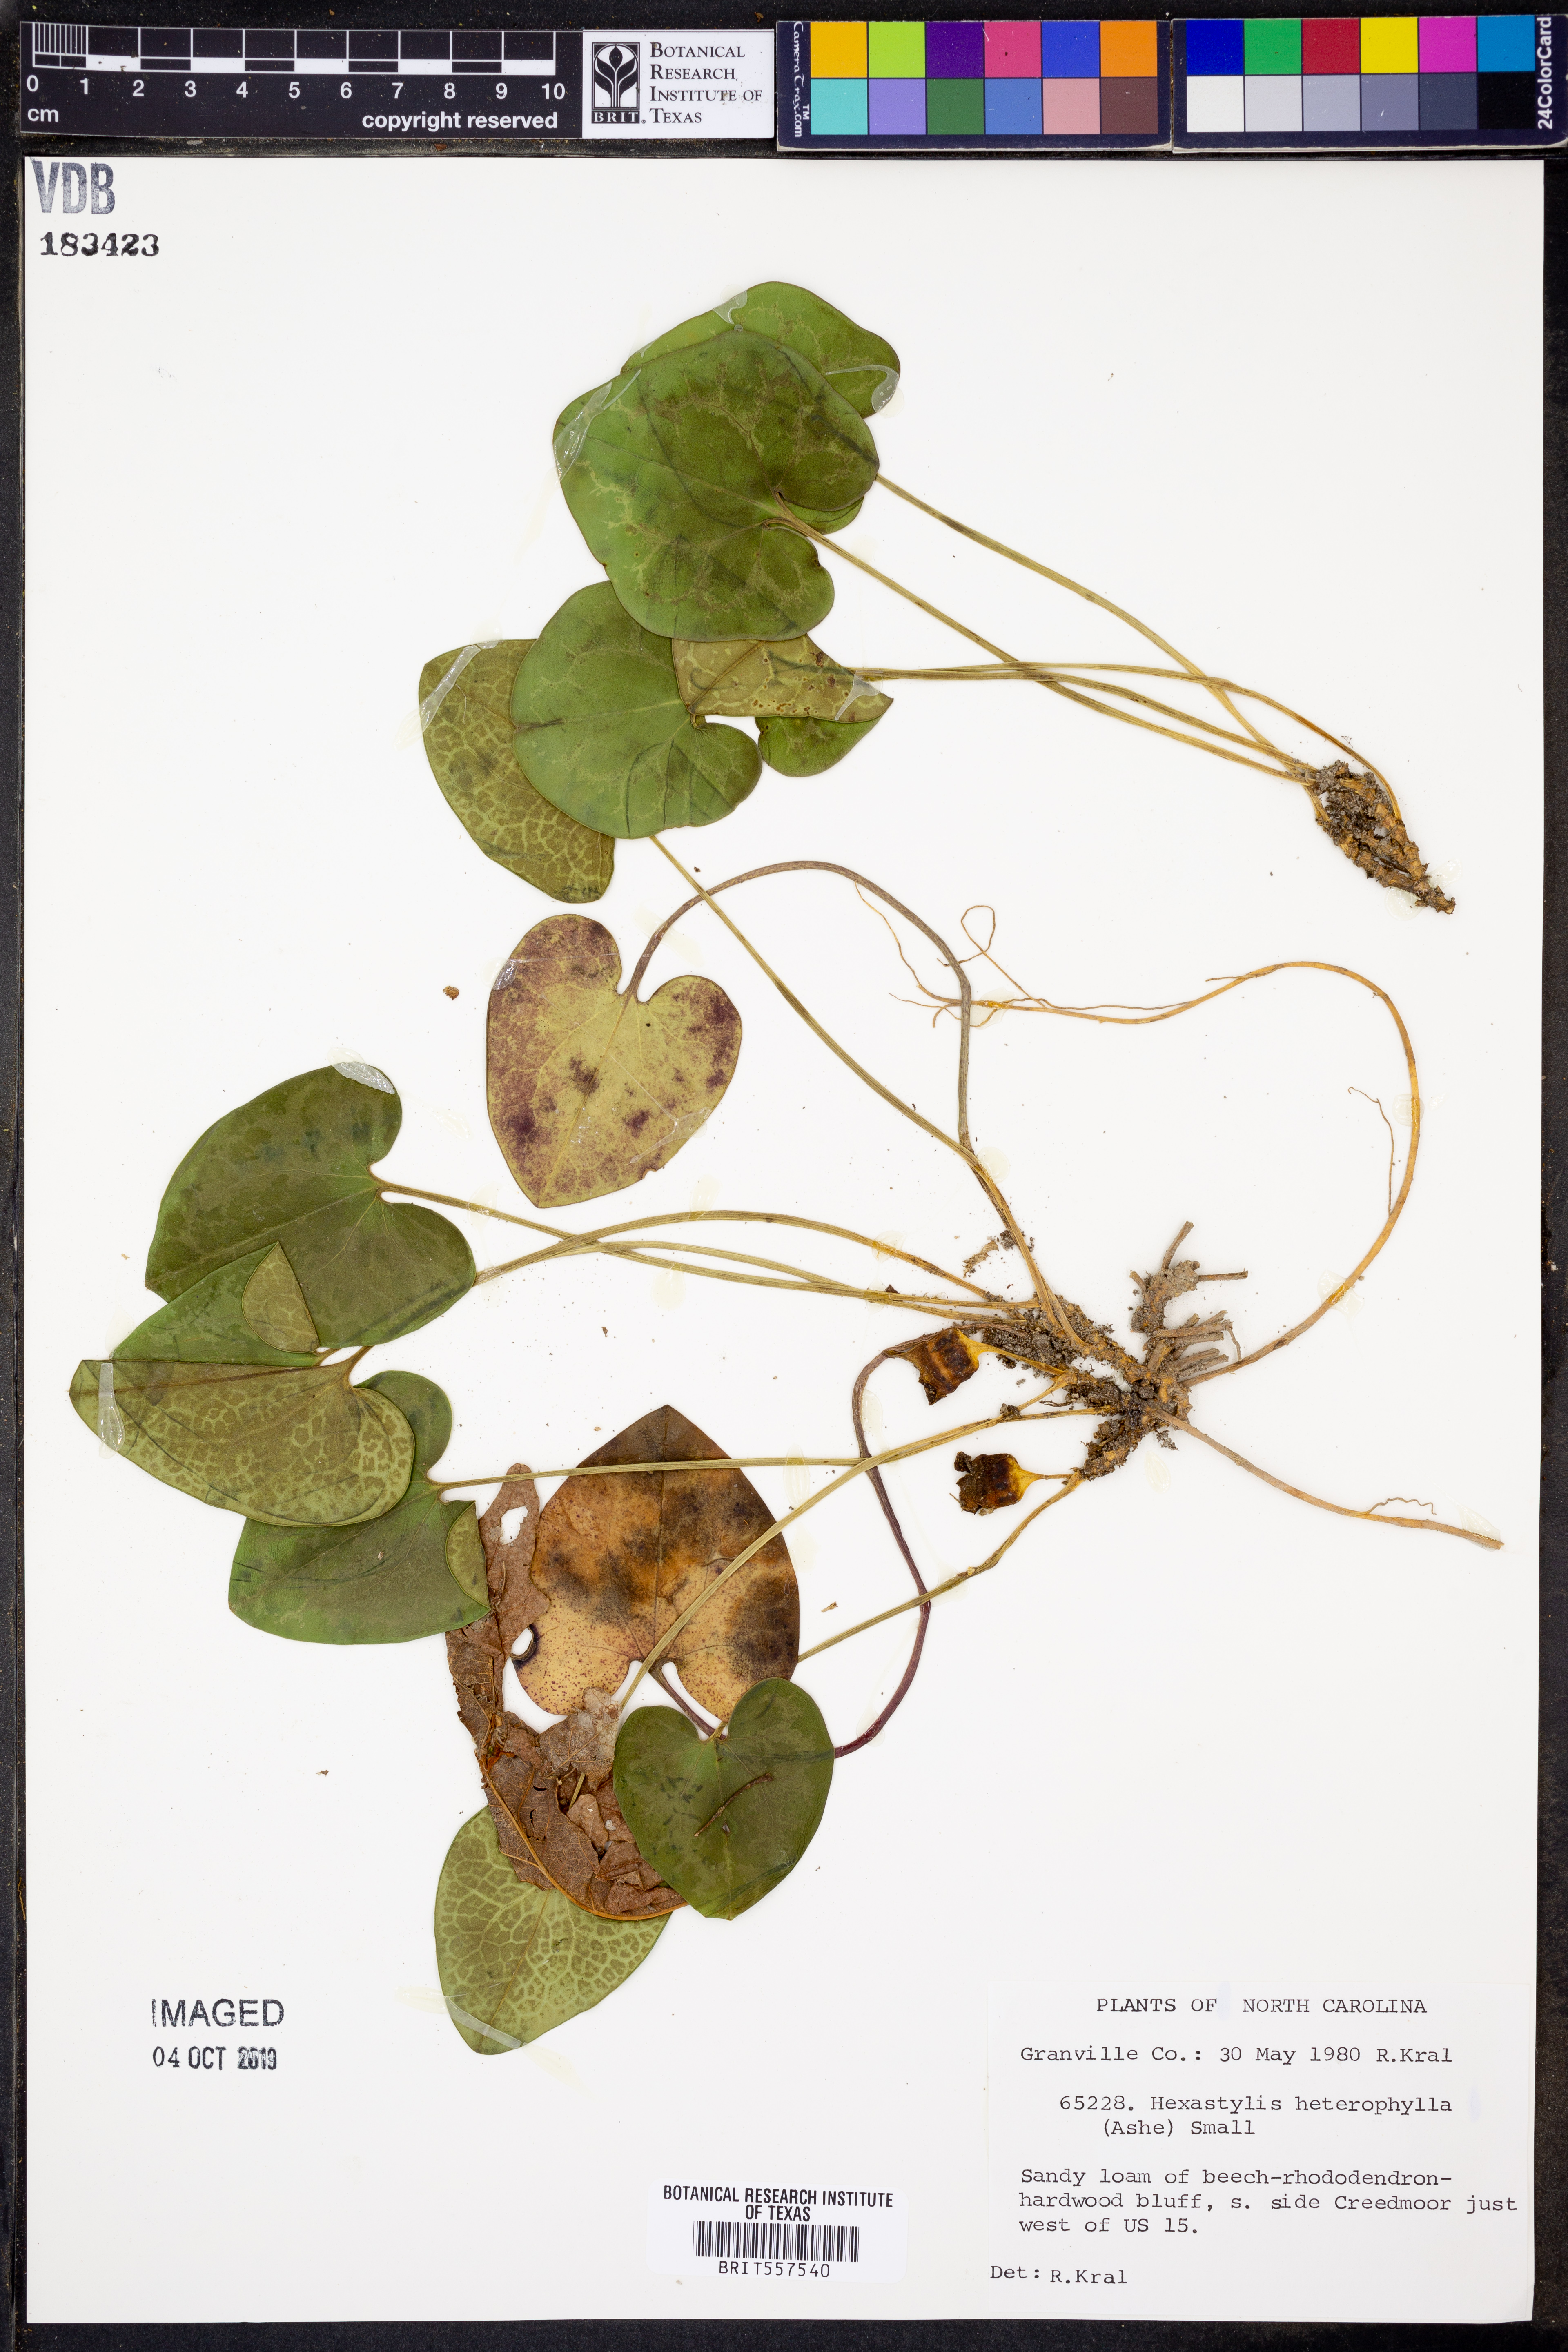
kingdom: Plantae
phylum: Tracheophyta
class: Magnoliopsida
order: Piperales
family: Aristolochiaceae
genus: Hexastylis
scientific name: Hexastylis heterophylla
